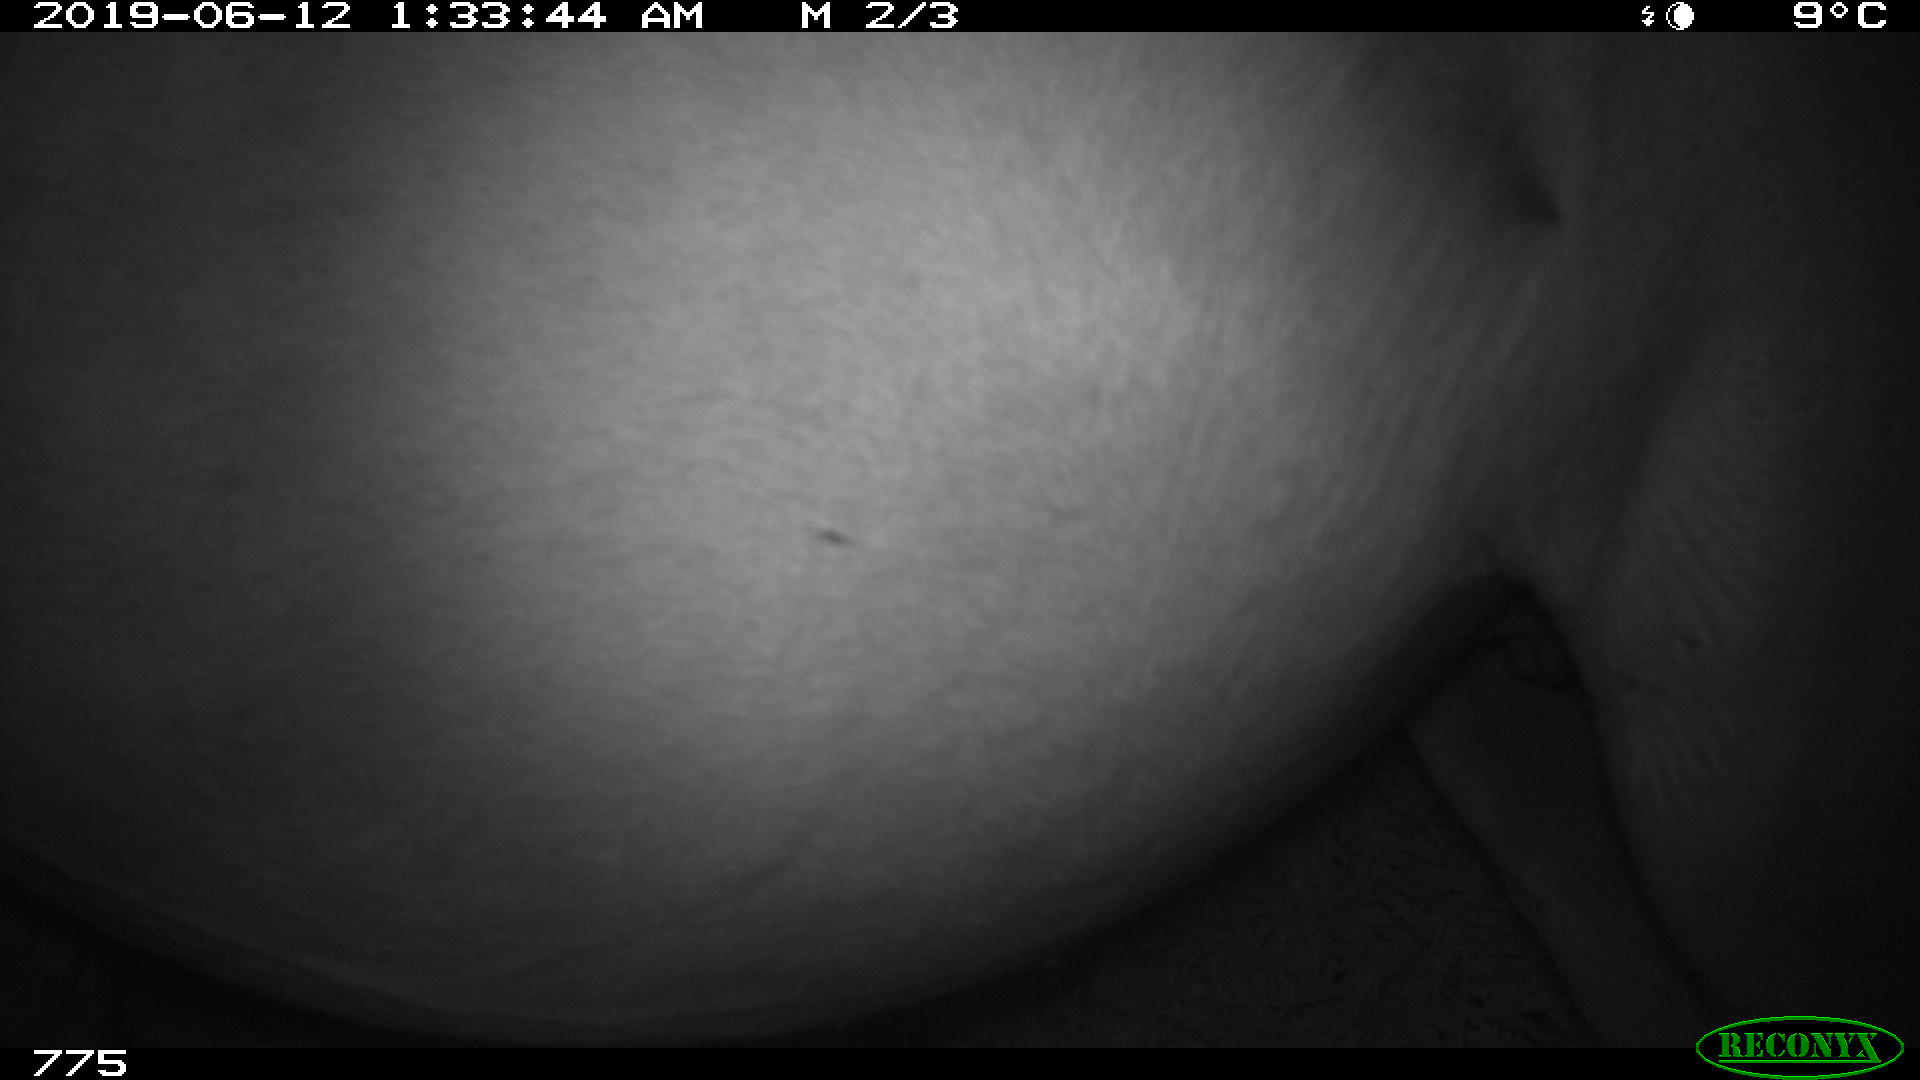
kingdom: Animalia
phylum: Chordata
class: Mammalia
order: Perissodactyla
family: Equidae
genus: Equus
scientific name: Equus caballus
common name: Horse
